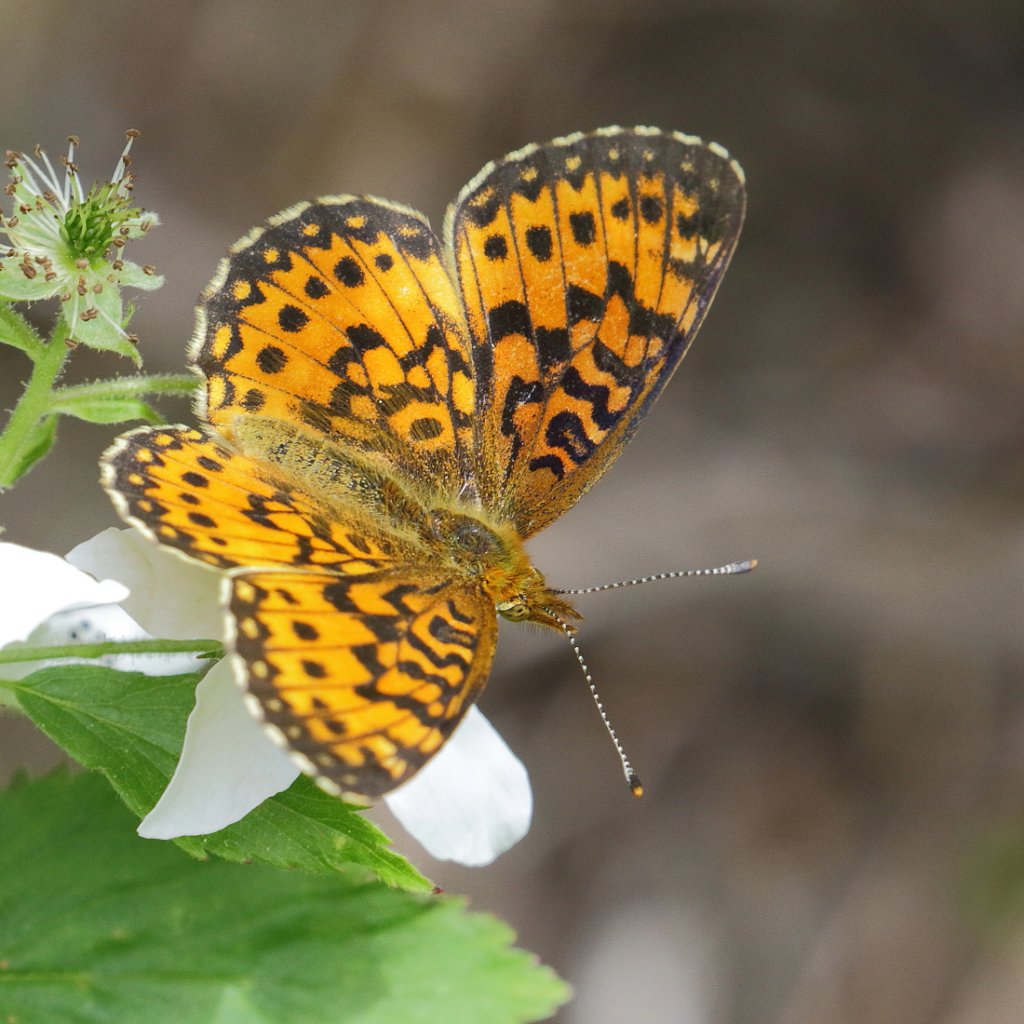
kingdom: Animalia
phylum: Arthropoda
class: Insecta
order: Lepidoptera
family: Nymphalidae
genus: Boloria
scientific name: Boloria selene
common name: Silver-bordered Fritillary
